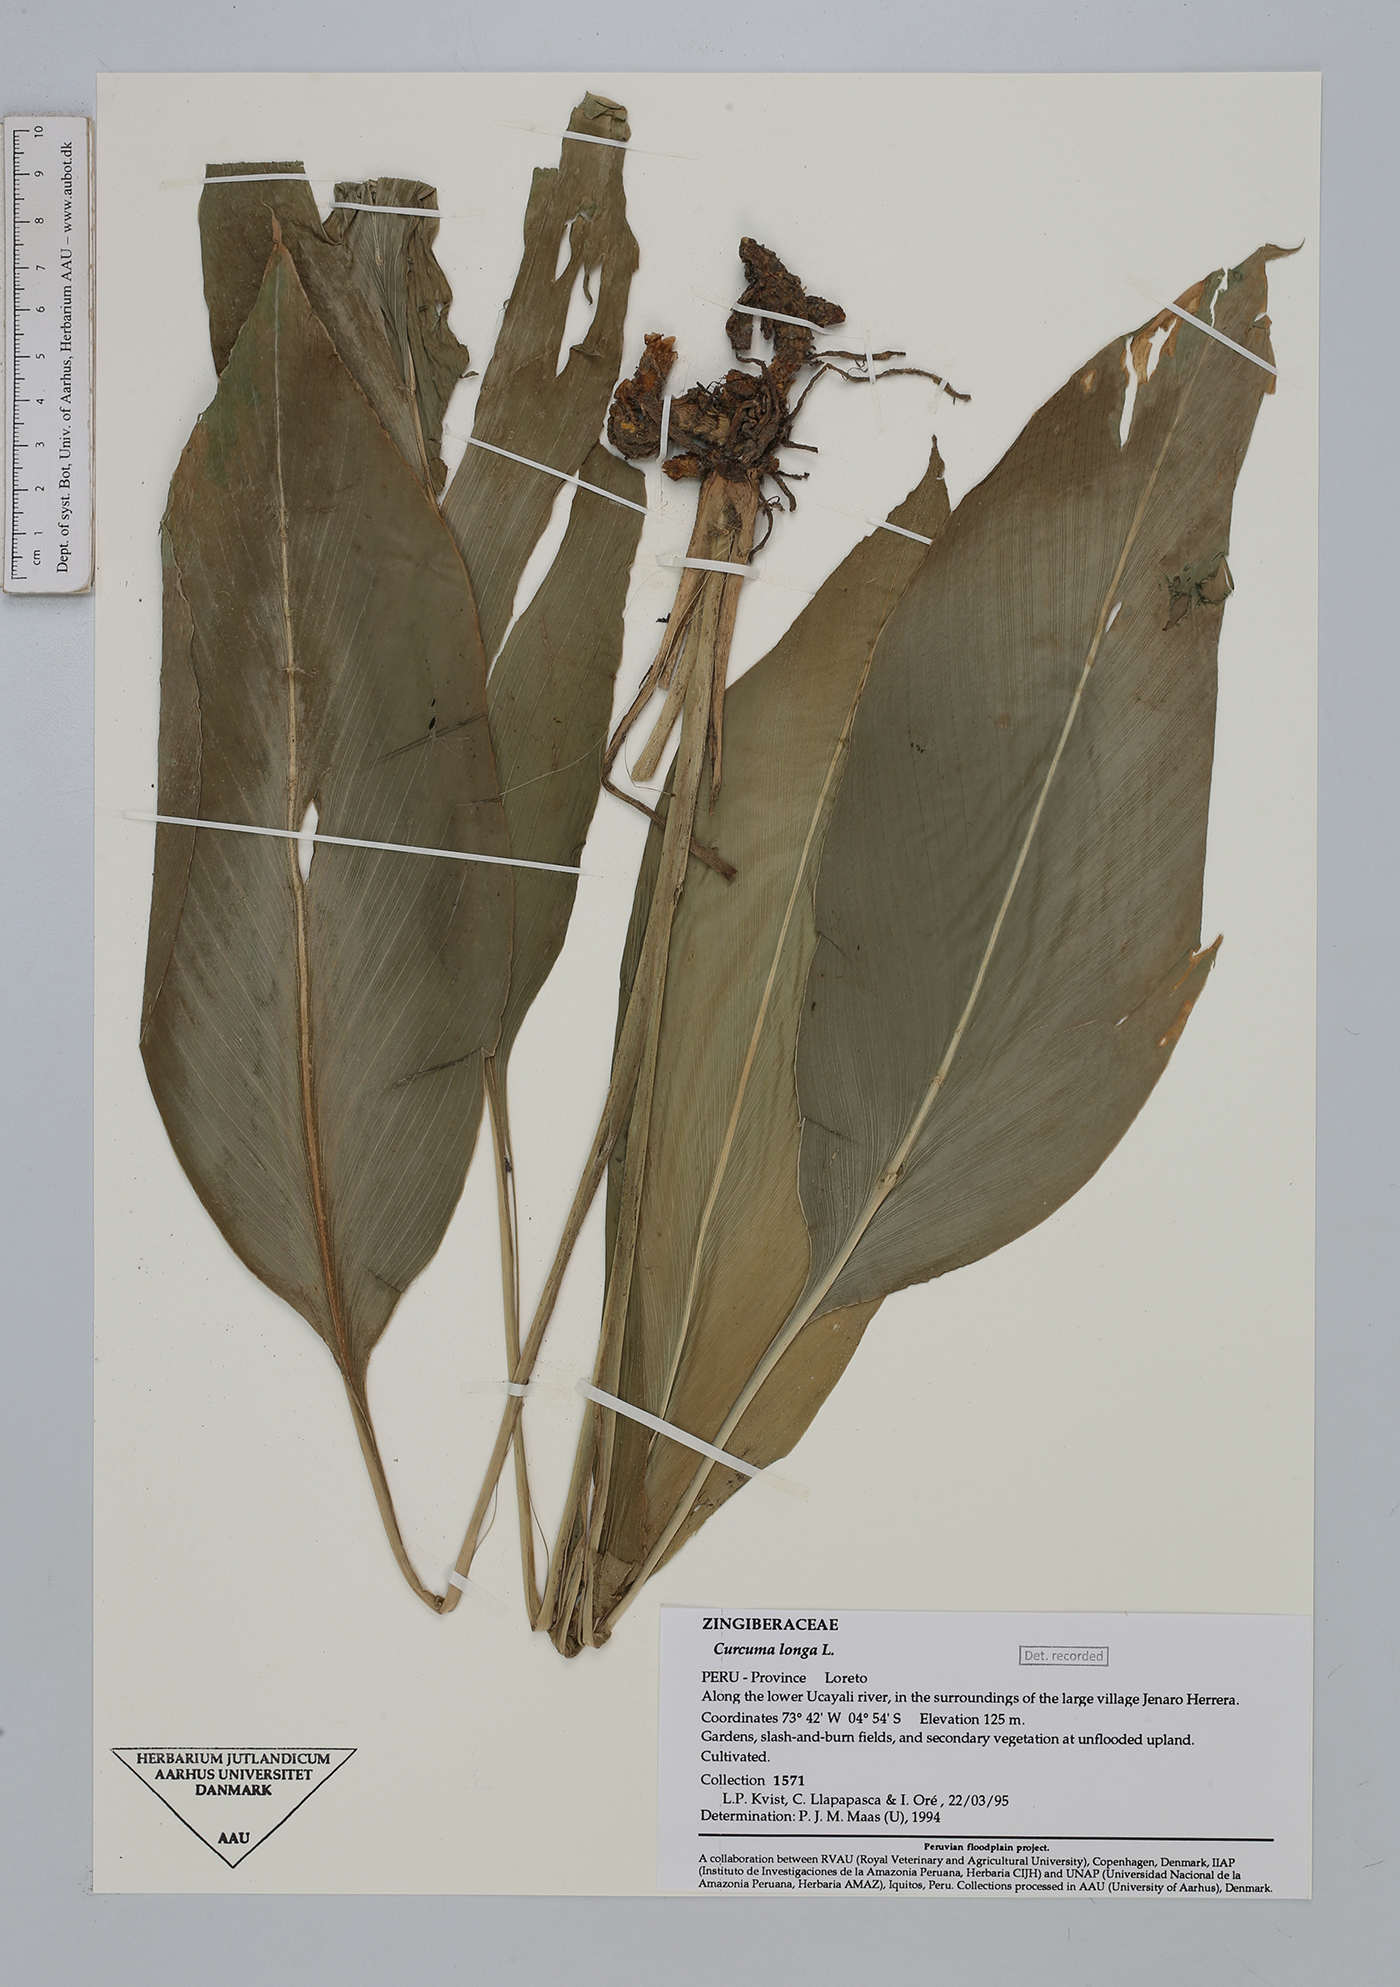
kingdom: Plantae
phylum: Tracheophyta
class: Liliopsida
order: Zingiberales
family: Zingiberaceae
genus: Curcuma
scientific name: Curcuma longa
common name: Turmeric
